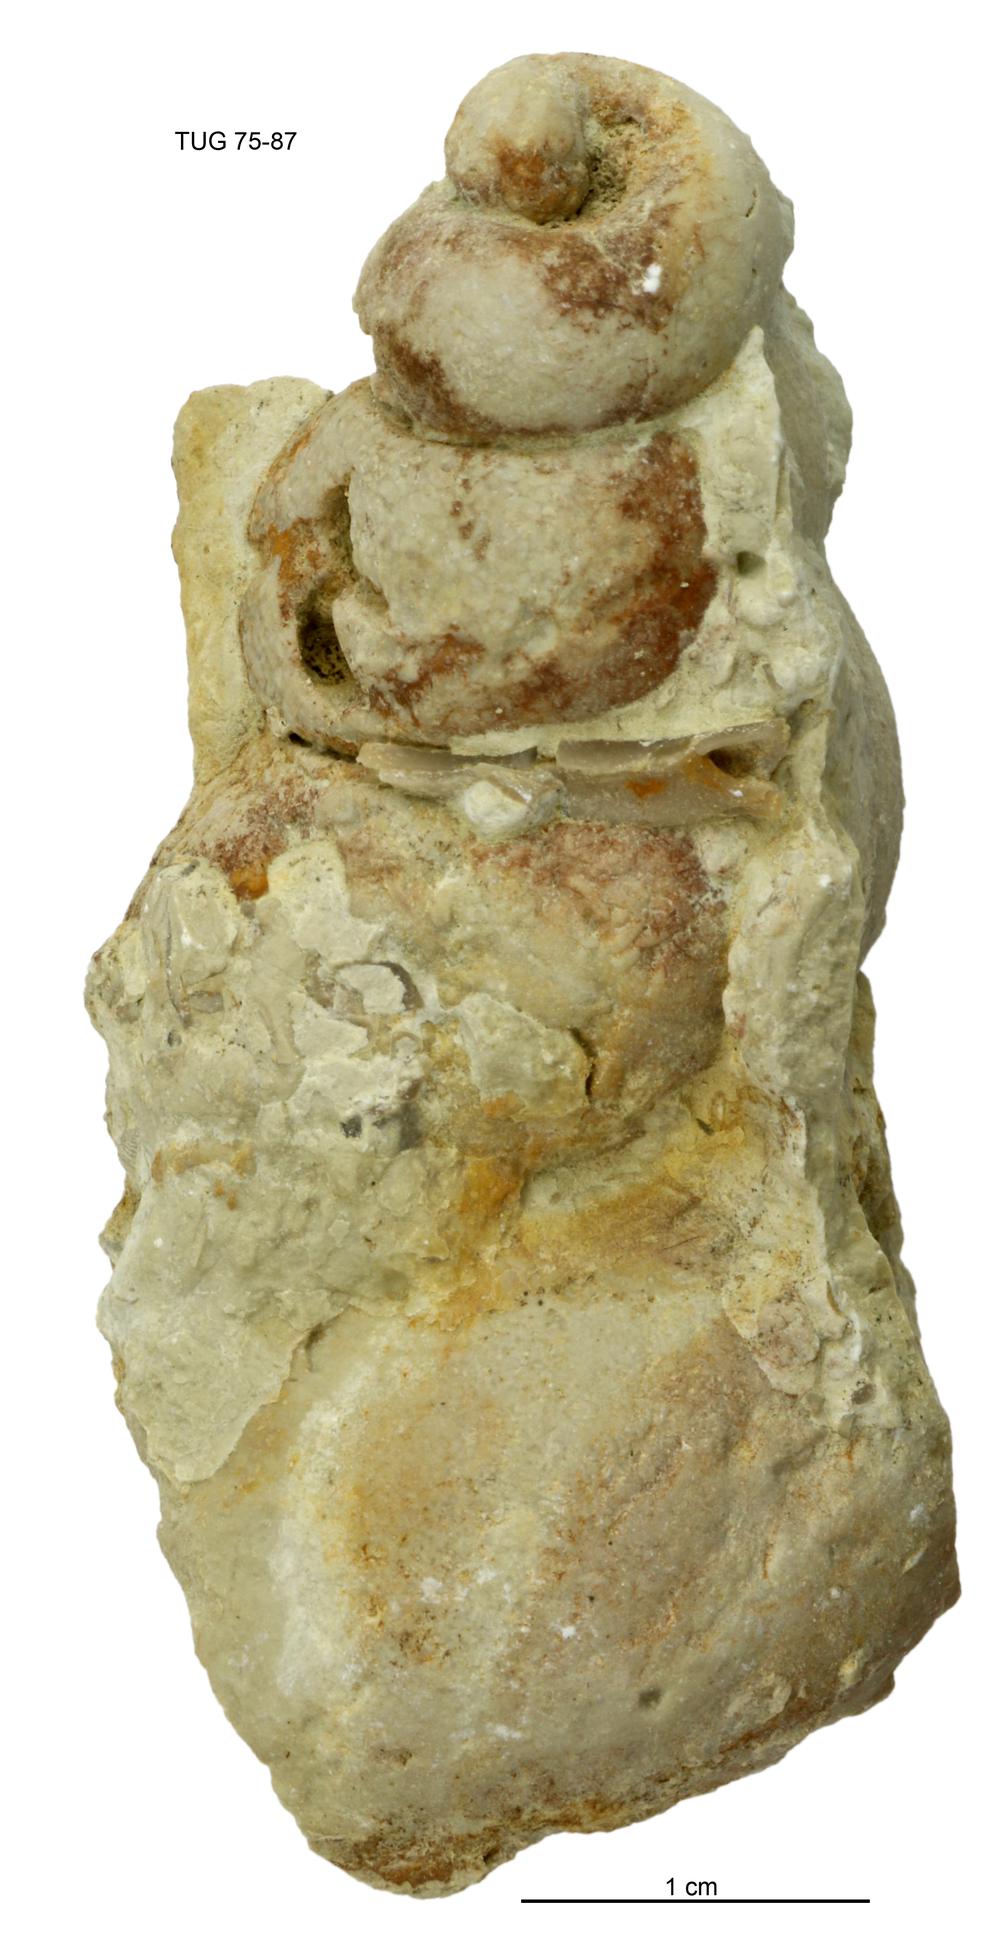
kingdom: Animalia
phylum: Mollusca
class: Gastropoda
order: Pleurotomariida
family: Murchisoniidae
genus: Murchisonia
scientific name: Murchisonia insignis
